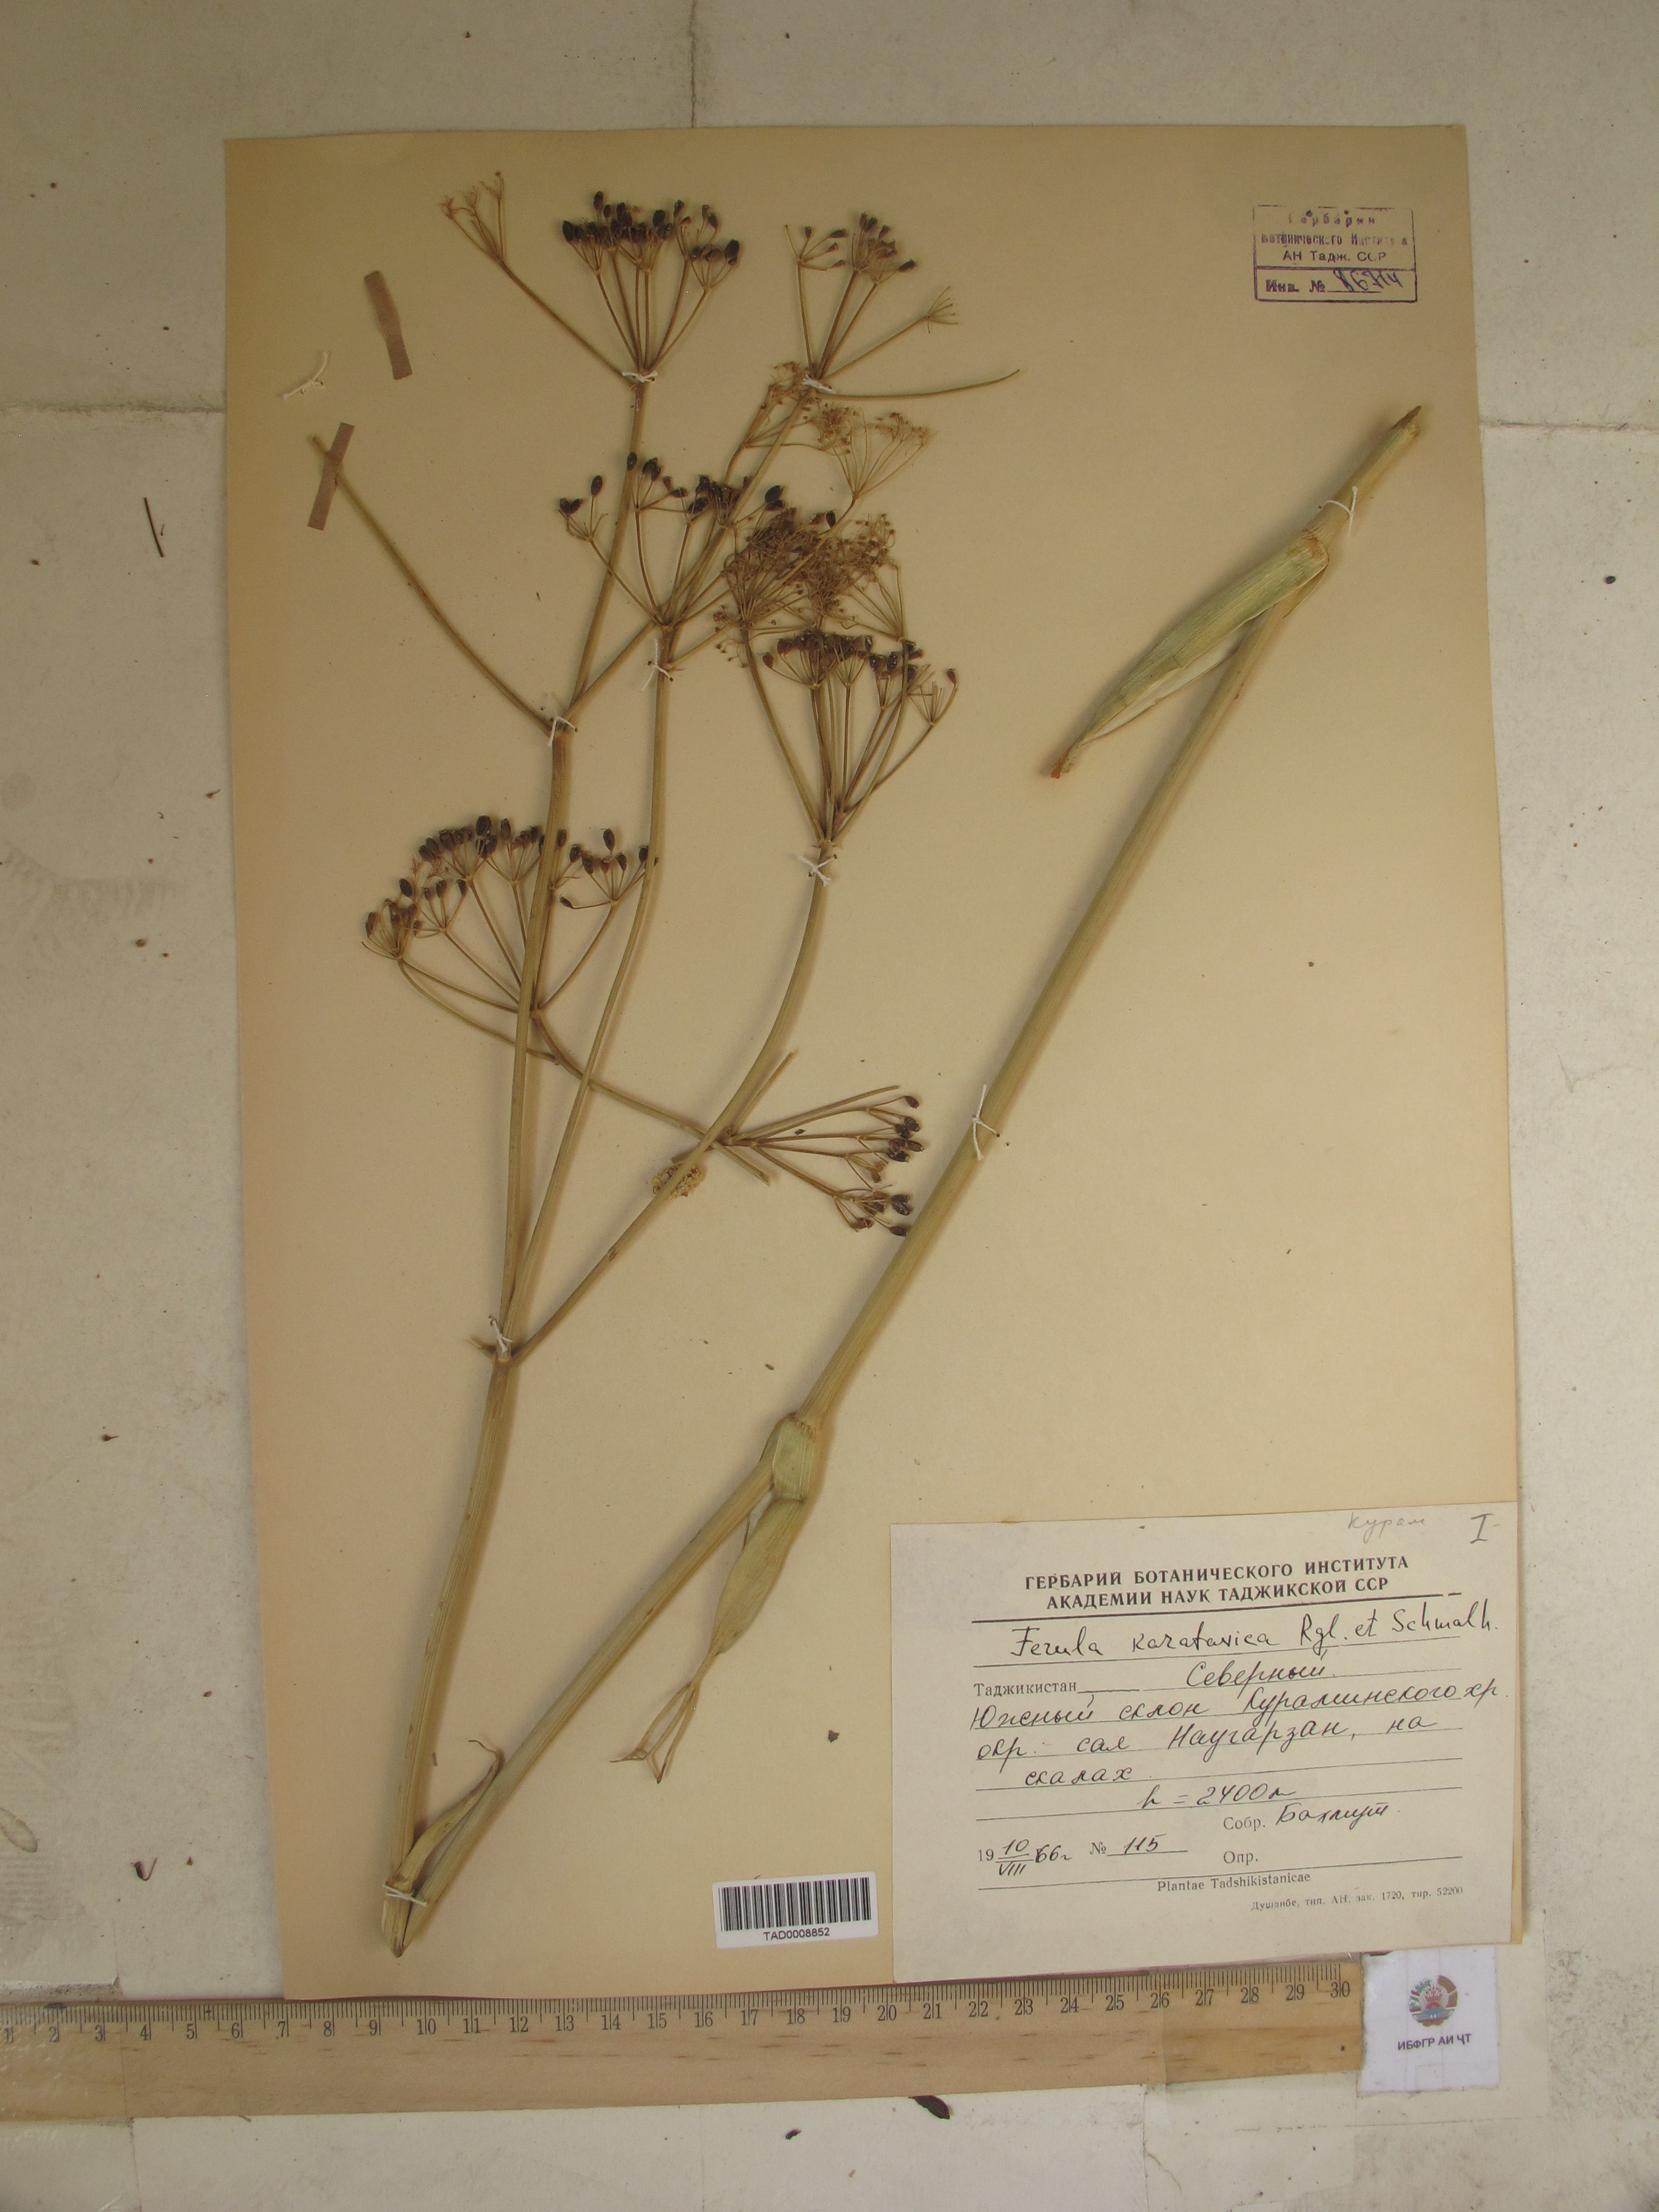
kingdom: Plantae
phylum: Tracheophyta
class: Magnoliopsida
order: Apiales
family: Apiaceae
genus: Ferula
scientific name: Ferula karatavica
